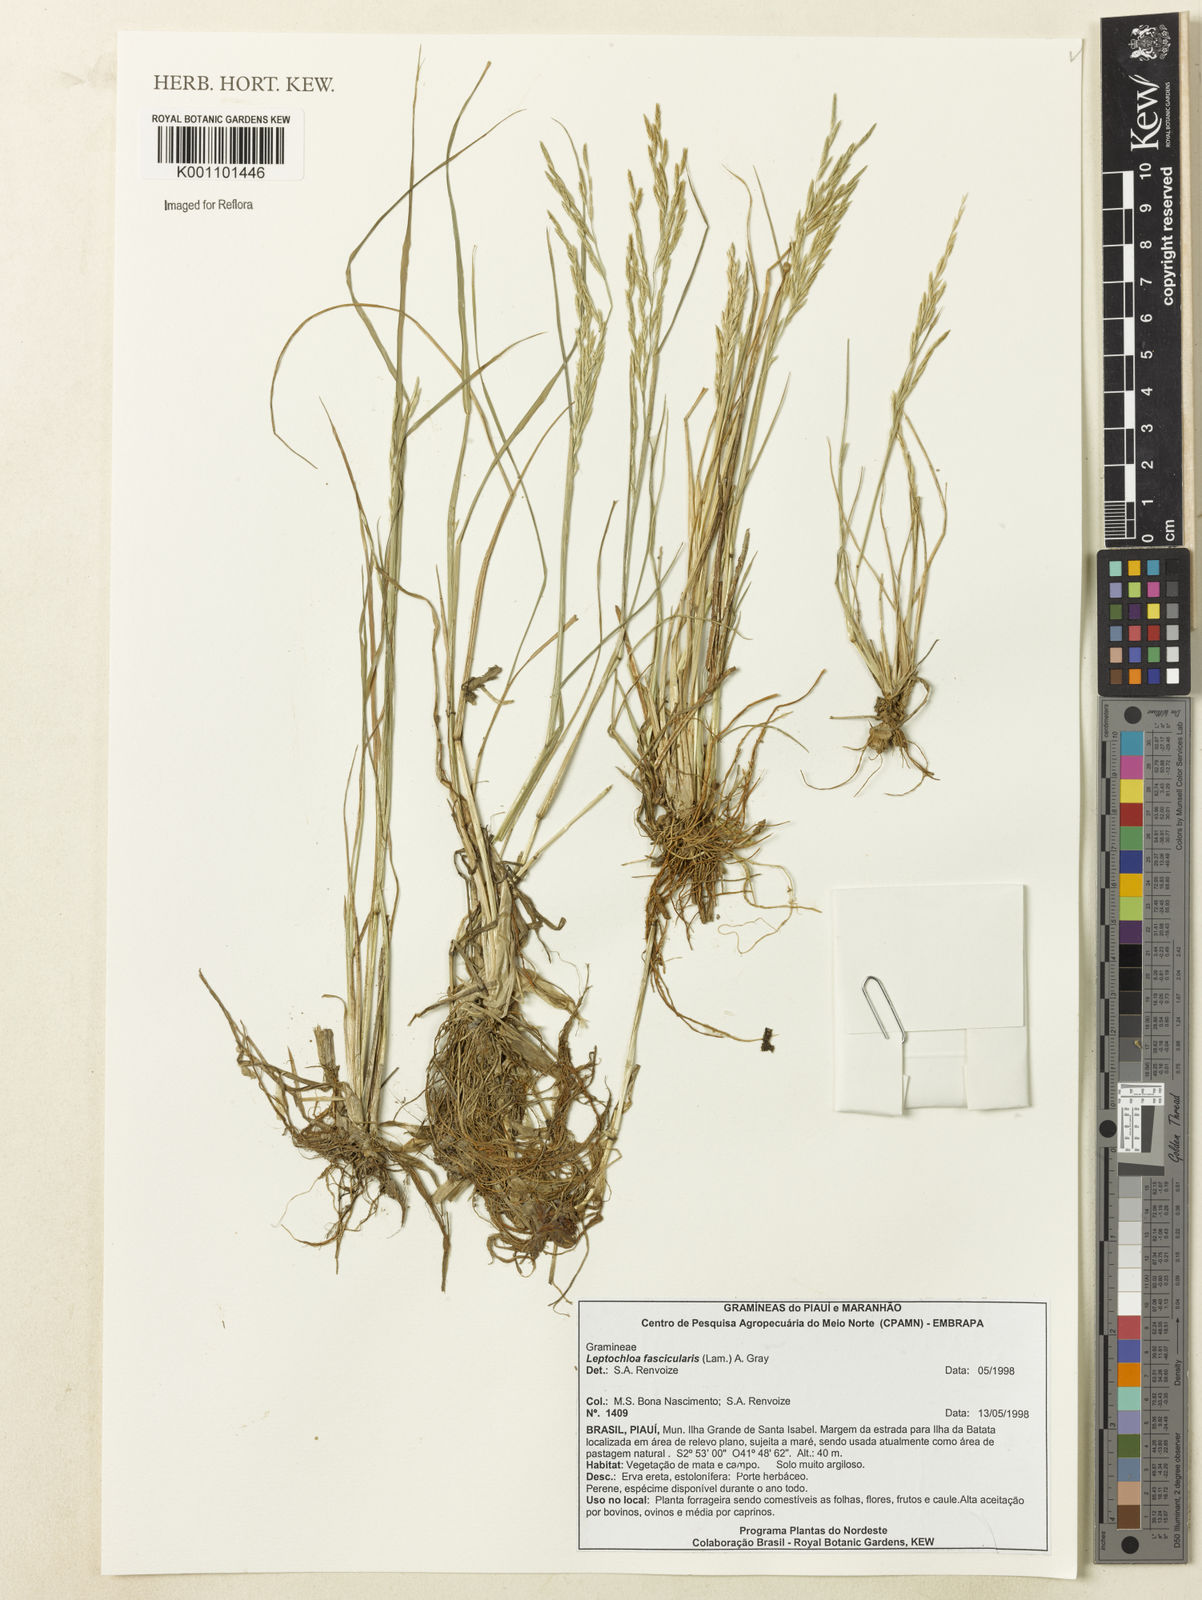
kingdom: Plantae
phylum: Tracheophyta
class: Liliopsida
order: Poales
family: Poaceae
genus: Diplachne
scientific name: Diplachne fusca
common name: Brown beetle grass
